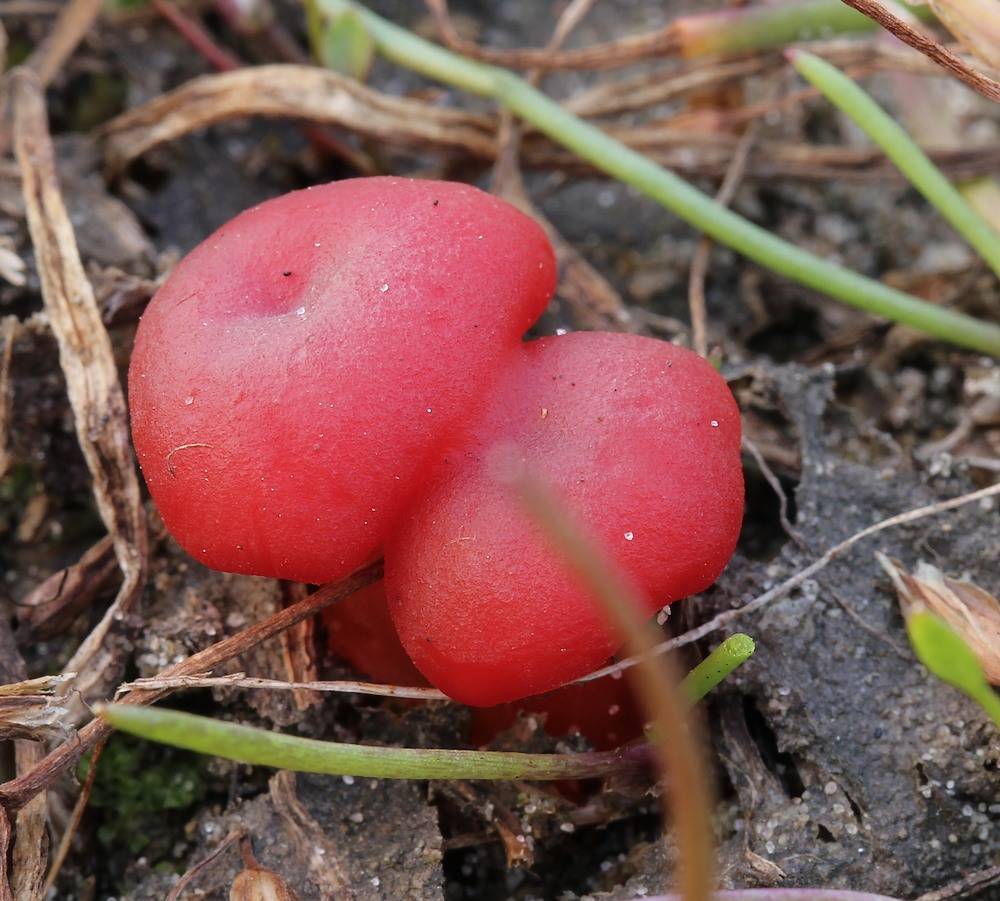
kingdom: Fungi
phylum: Basidiomycota
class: Agaricomycetes
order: Agaricales
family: Hygrophoraceae
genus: Hygrocybe
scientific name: Hygrocybe phaeococcinea
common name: sortdugget vokshat
